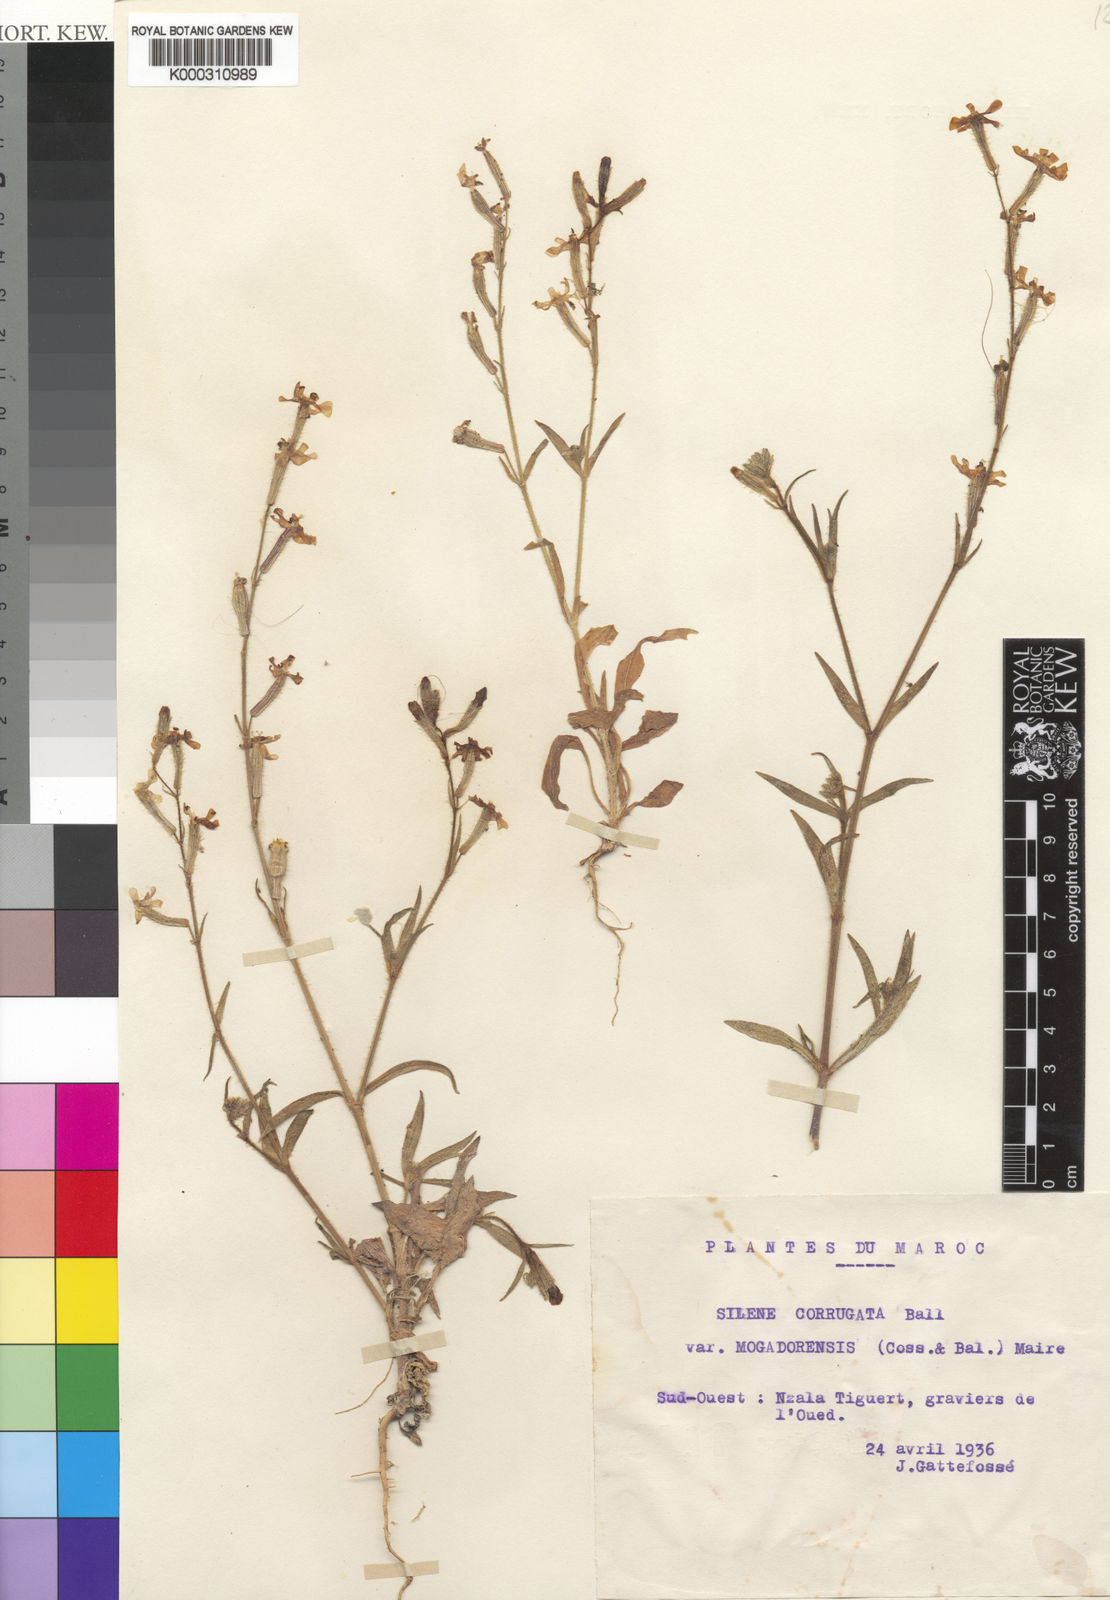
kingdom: Plantae
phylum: Tracheophyta
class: Magnoliopsida
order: Caryophyllales
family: Caryophyllaceae
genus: Silene
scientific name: Silene corrugata
